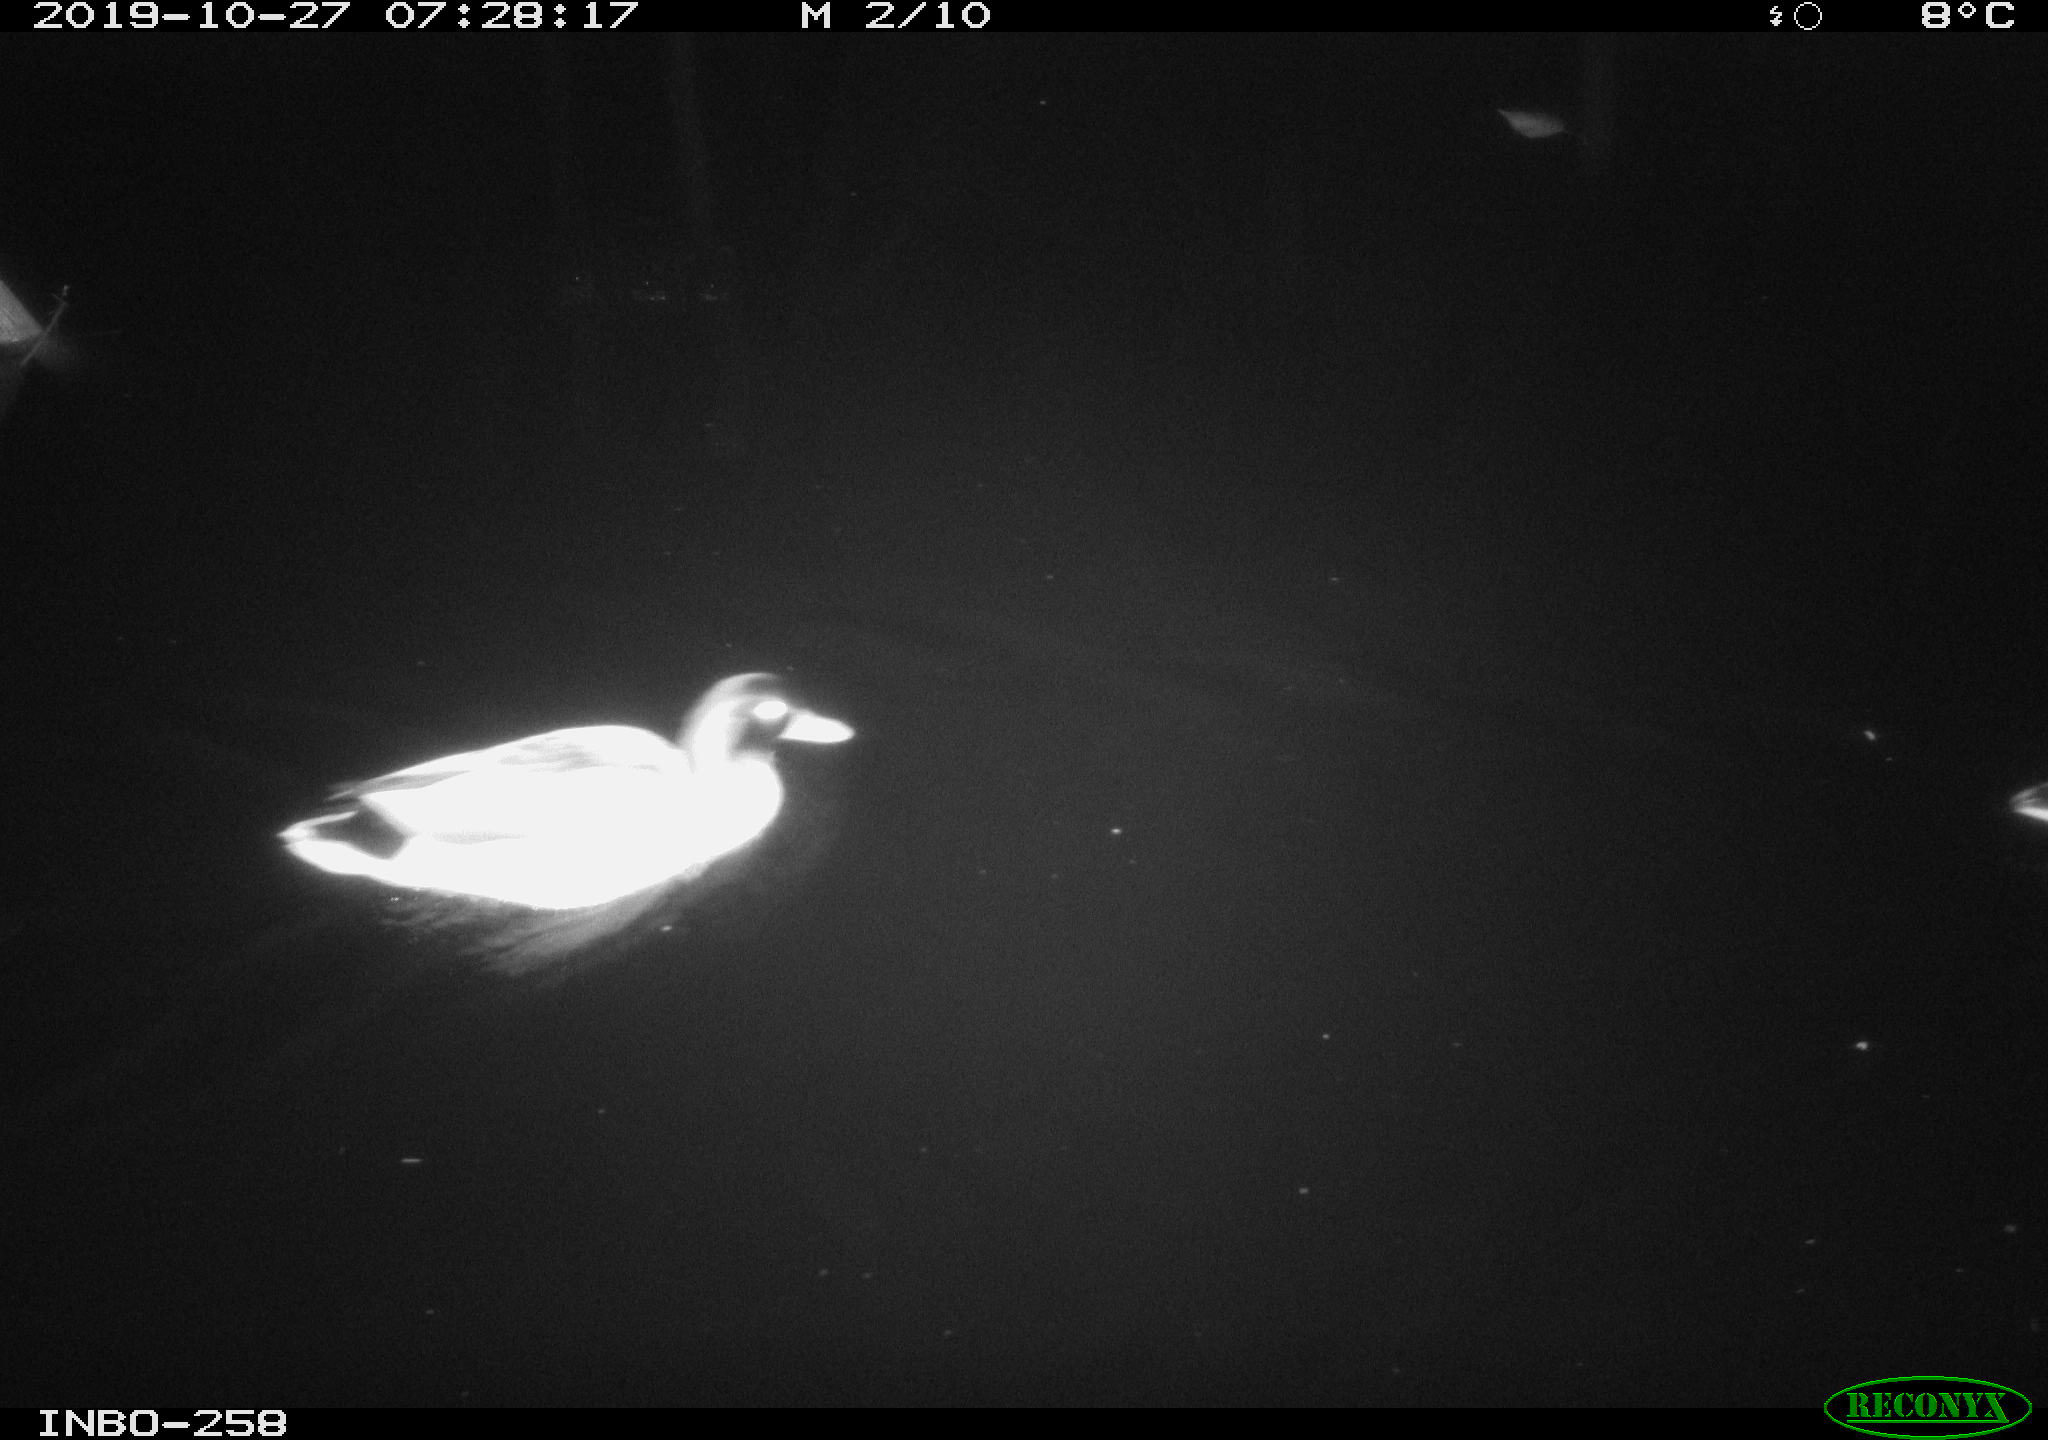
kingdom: Animalia
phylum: Chordata
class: Aves
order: Anseriformes
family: Anatidae
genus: Anas
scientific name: Anas platyrhynchos
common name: Mallard
